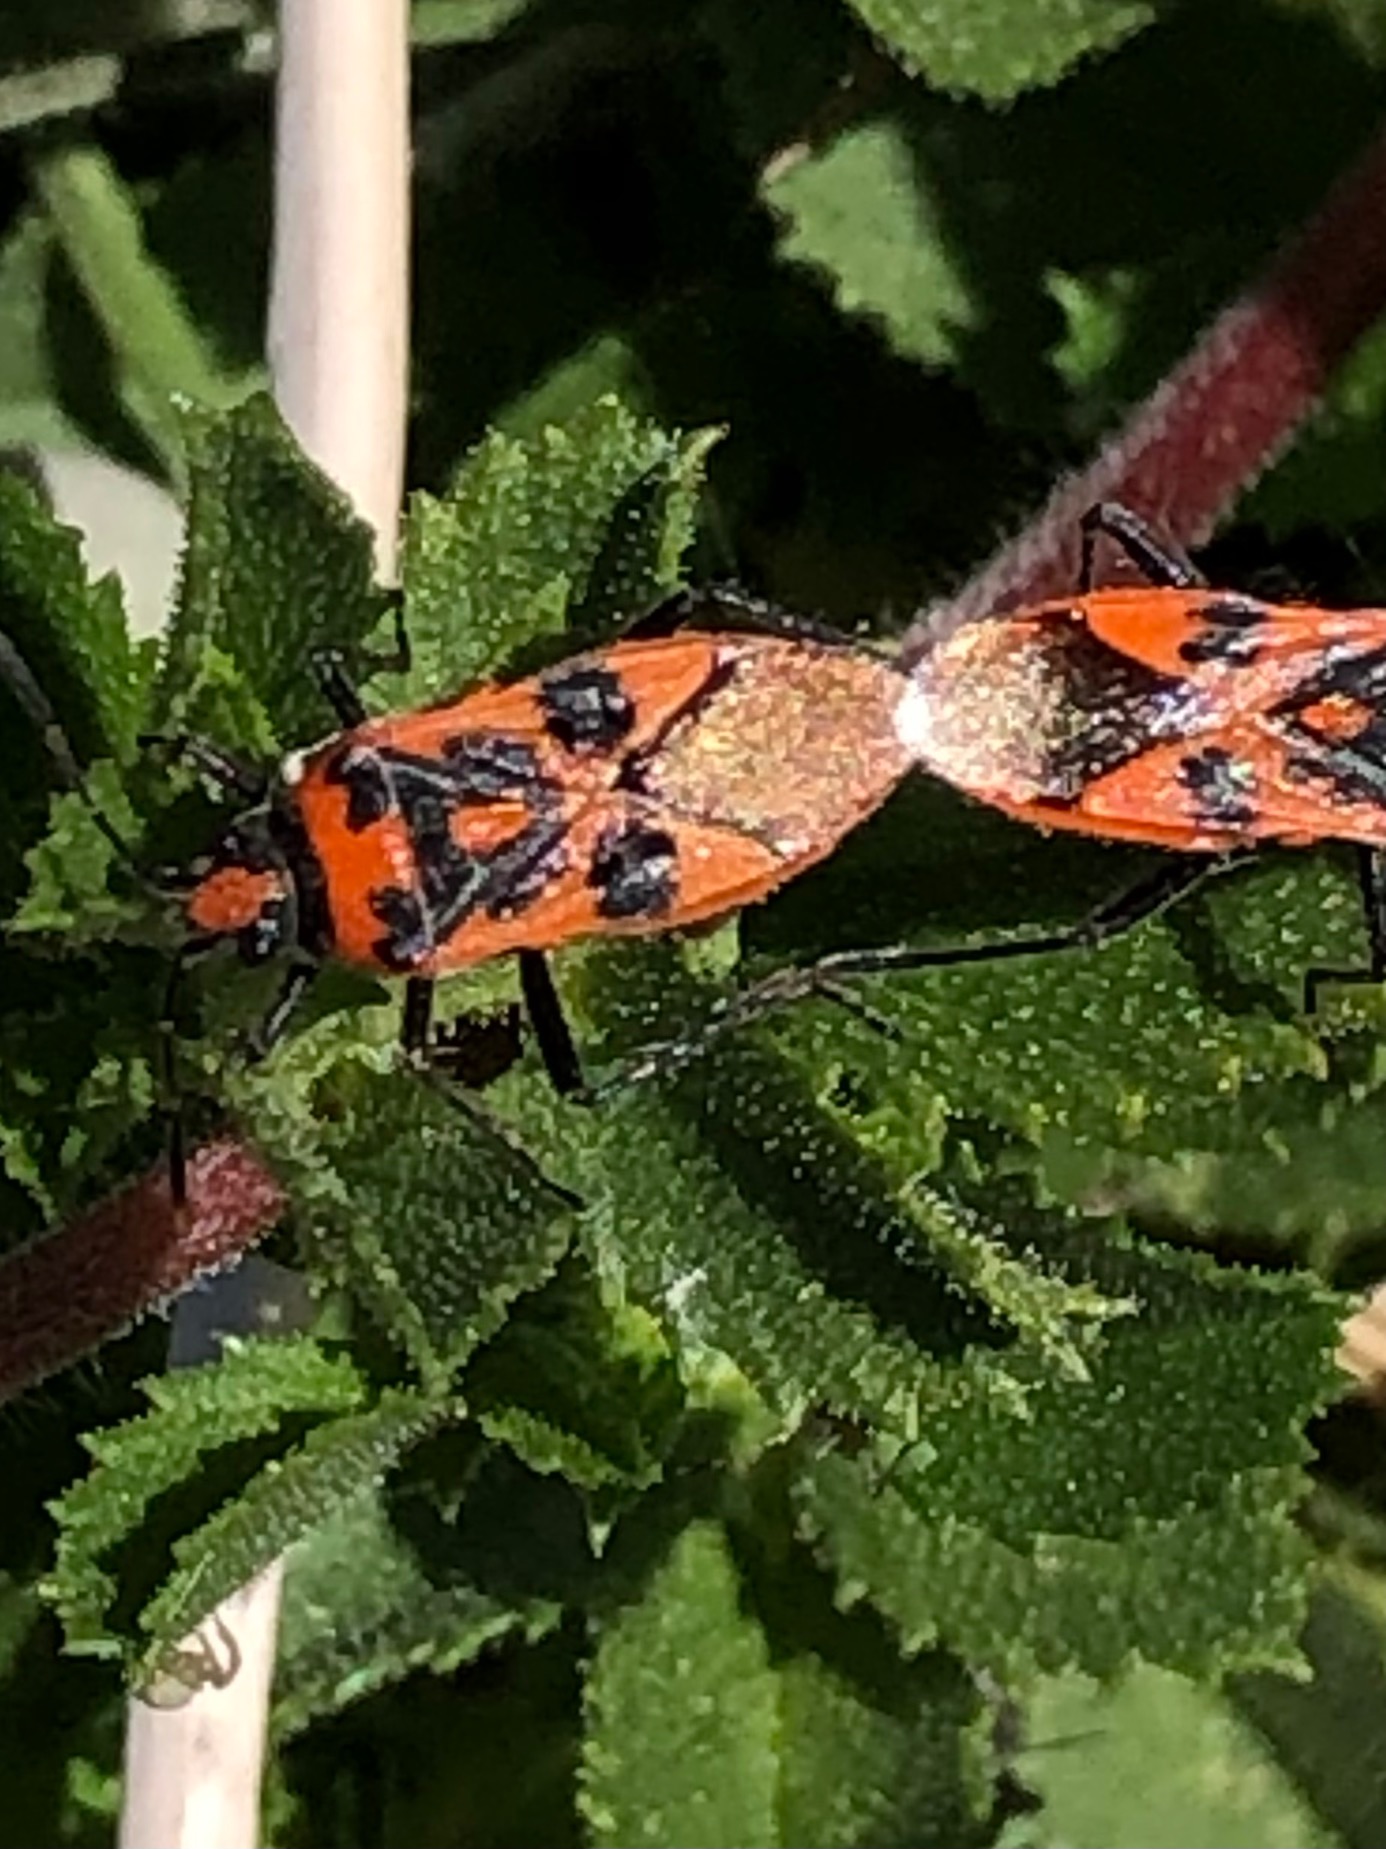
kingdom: Animalia
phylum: Arthropoda
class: Insecta
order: Hemiptera
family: Rhopalidae
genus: Corizus
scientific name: Corizus hyoscyami
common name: Rød kanttæge
